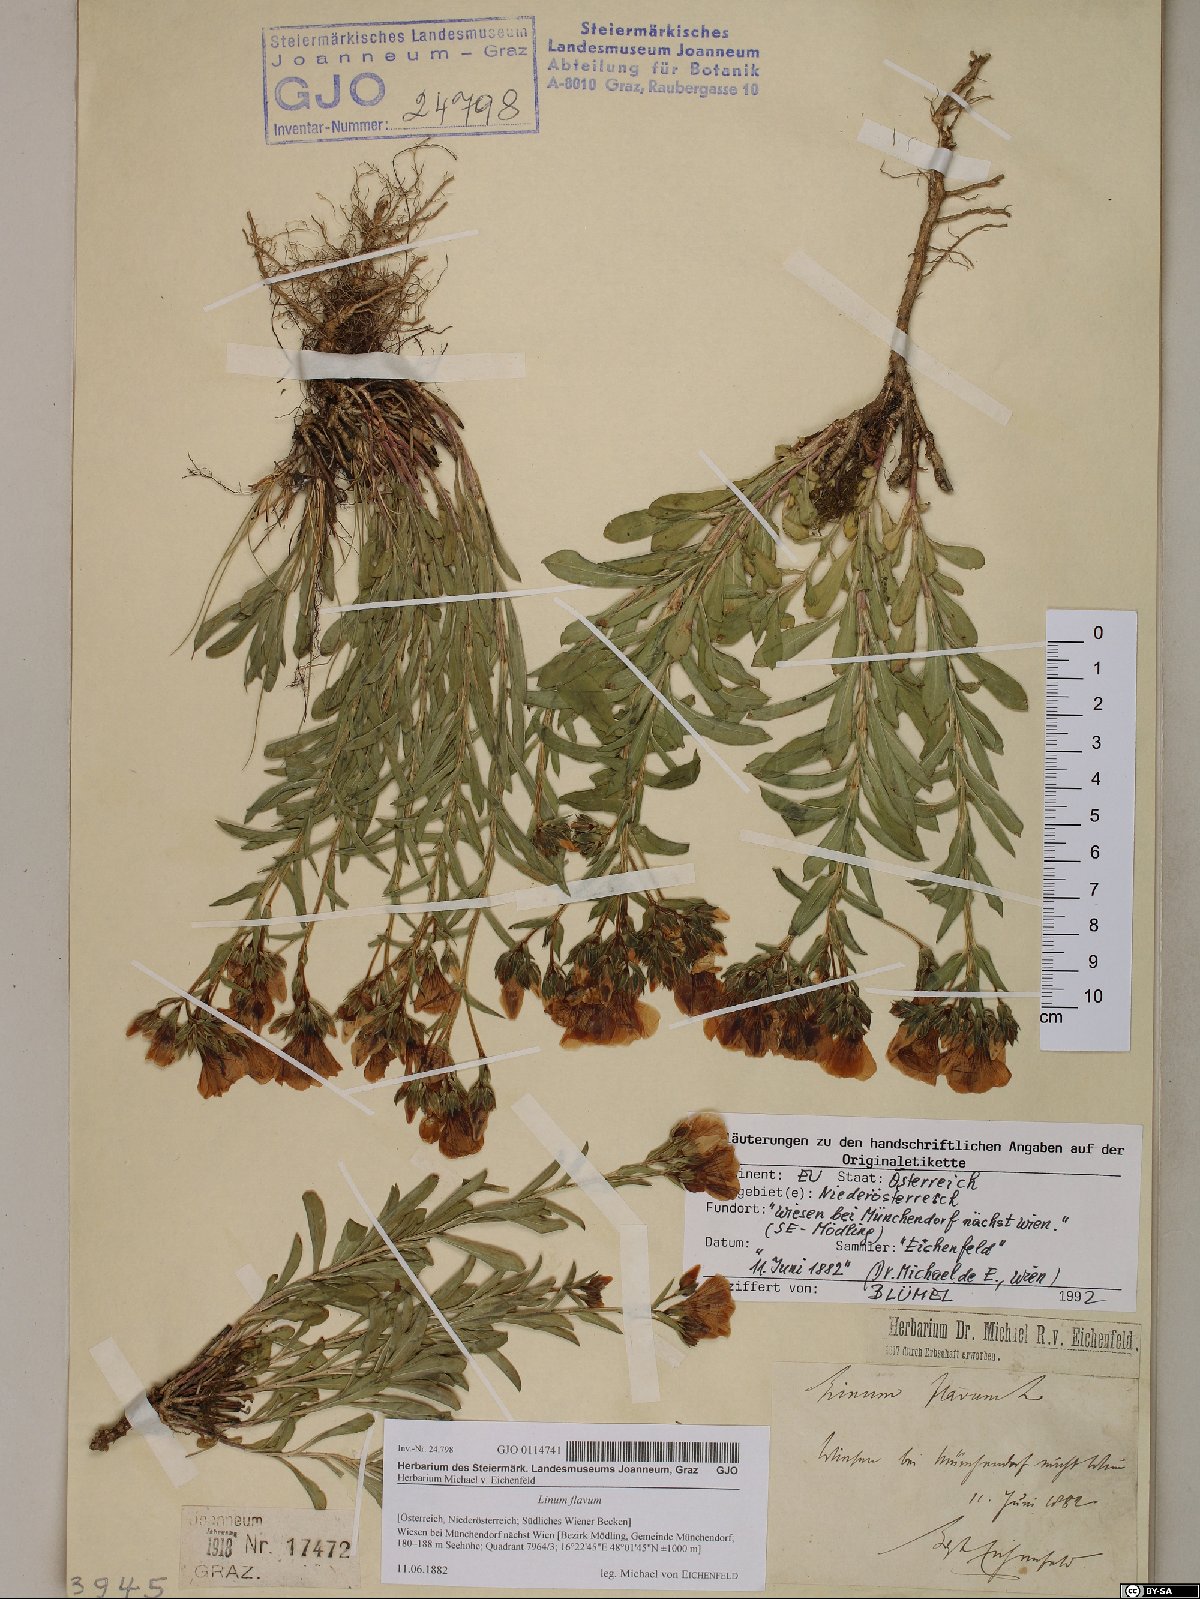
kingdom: Plantae
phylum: Tracheophyta
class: Magnoliopsida
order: Malpighiales
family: Linaceae
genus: Linum
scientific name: Linum flavum
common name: Yellow flax
